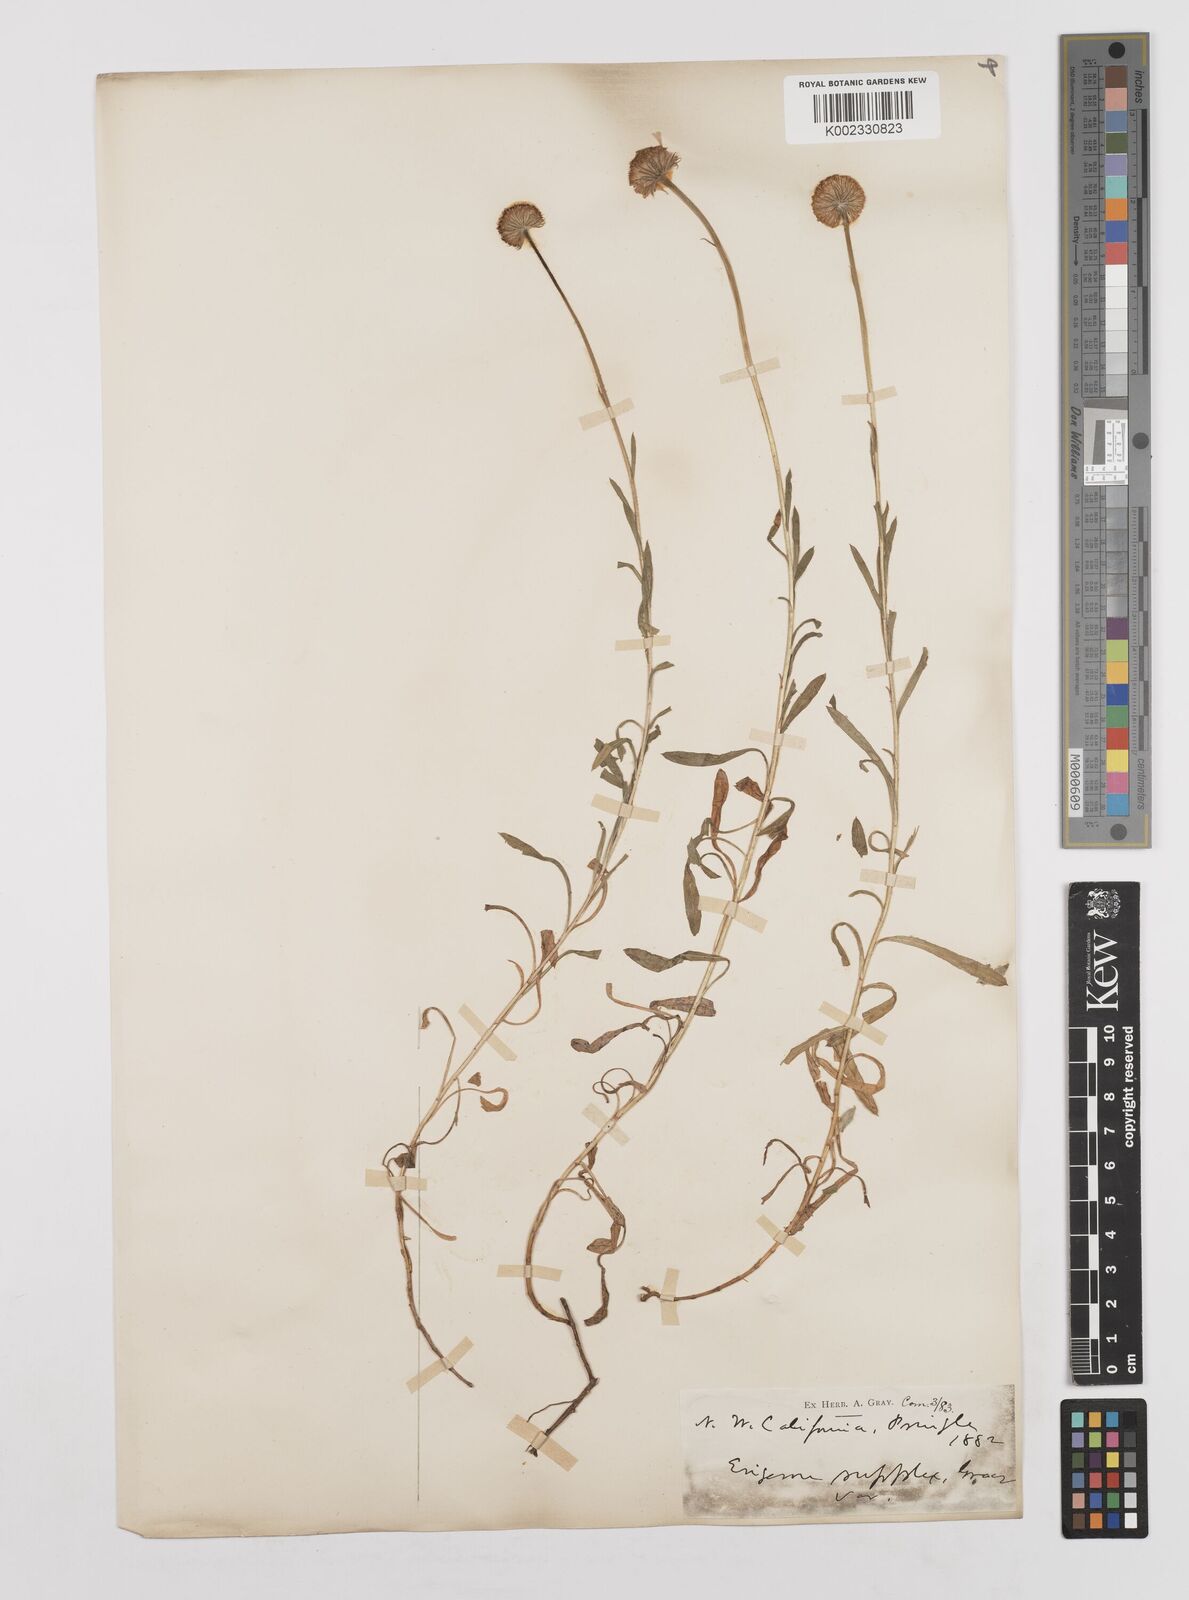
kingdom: Plantae
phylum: Tracheophyta
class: Magnoliopsida
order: Asterales
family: Asteraceae
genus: Erigeron
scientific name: Erigeron supplex
